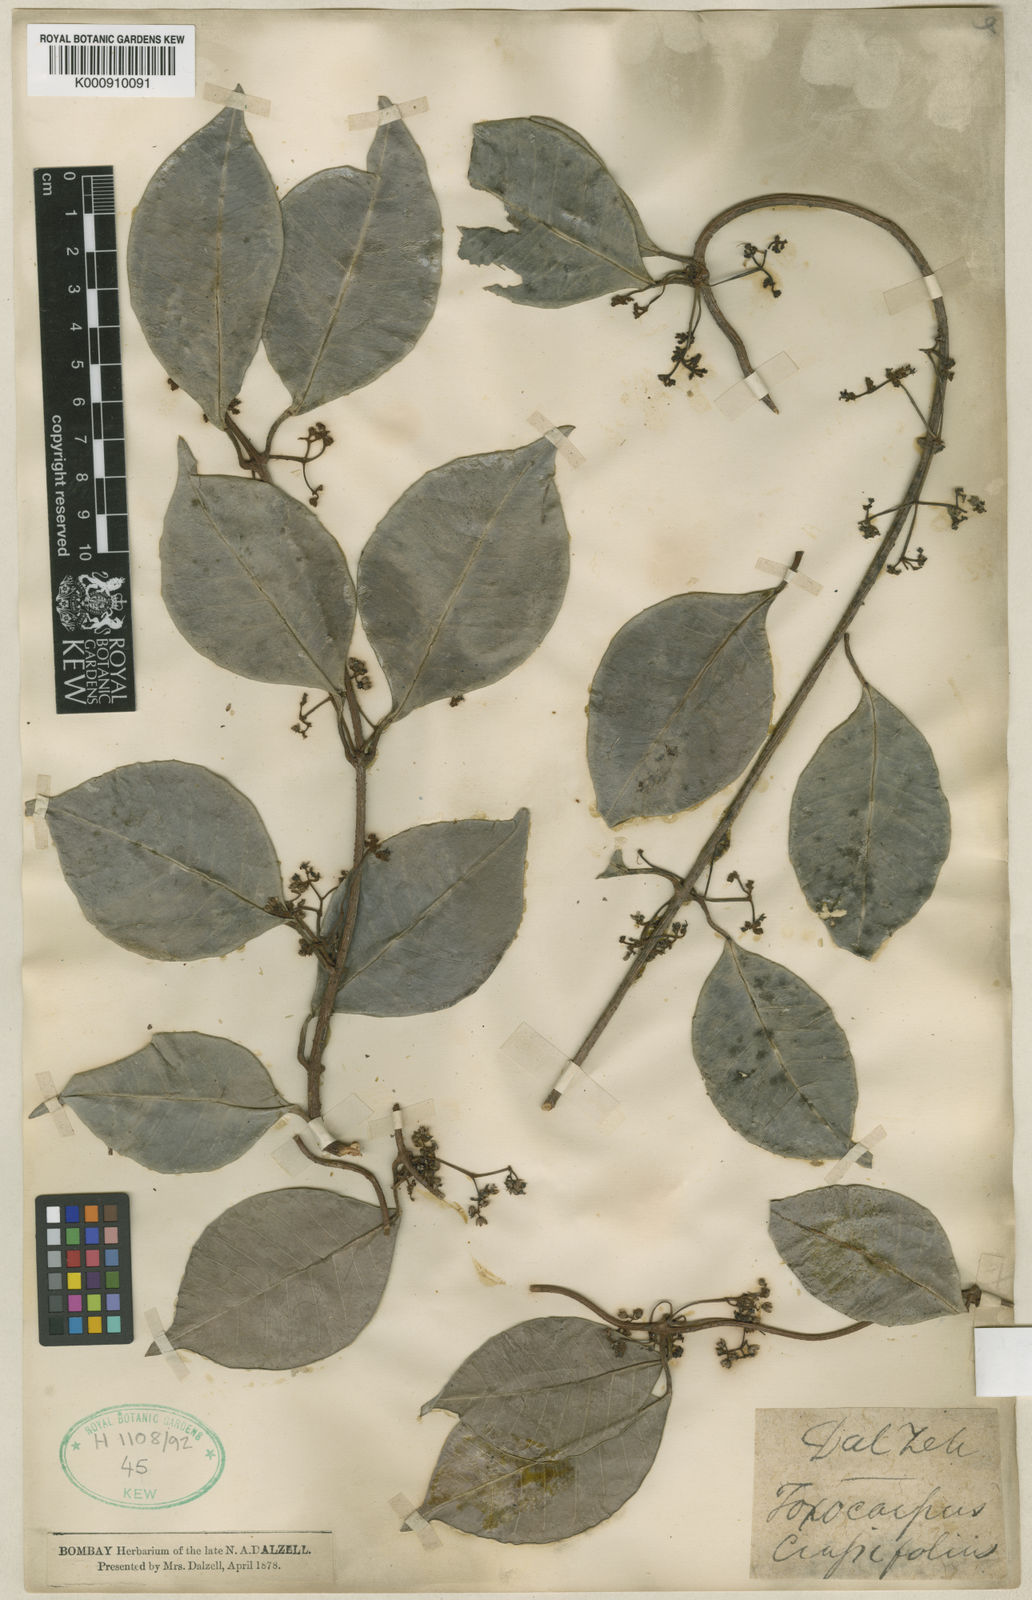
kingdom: Plantae
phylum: Tracheophyta
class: Magnoliopsida
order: Gentianales
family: Apocynaceae
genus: Genianthus
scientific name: Genianthus micranthus
